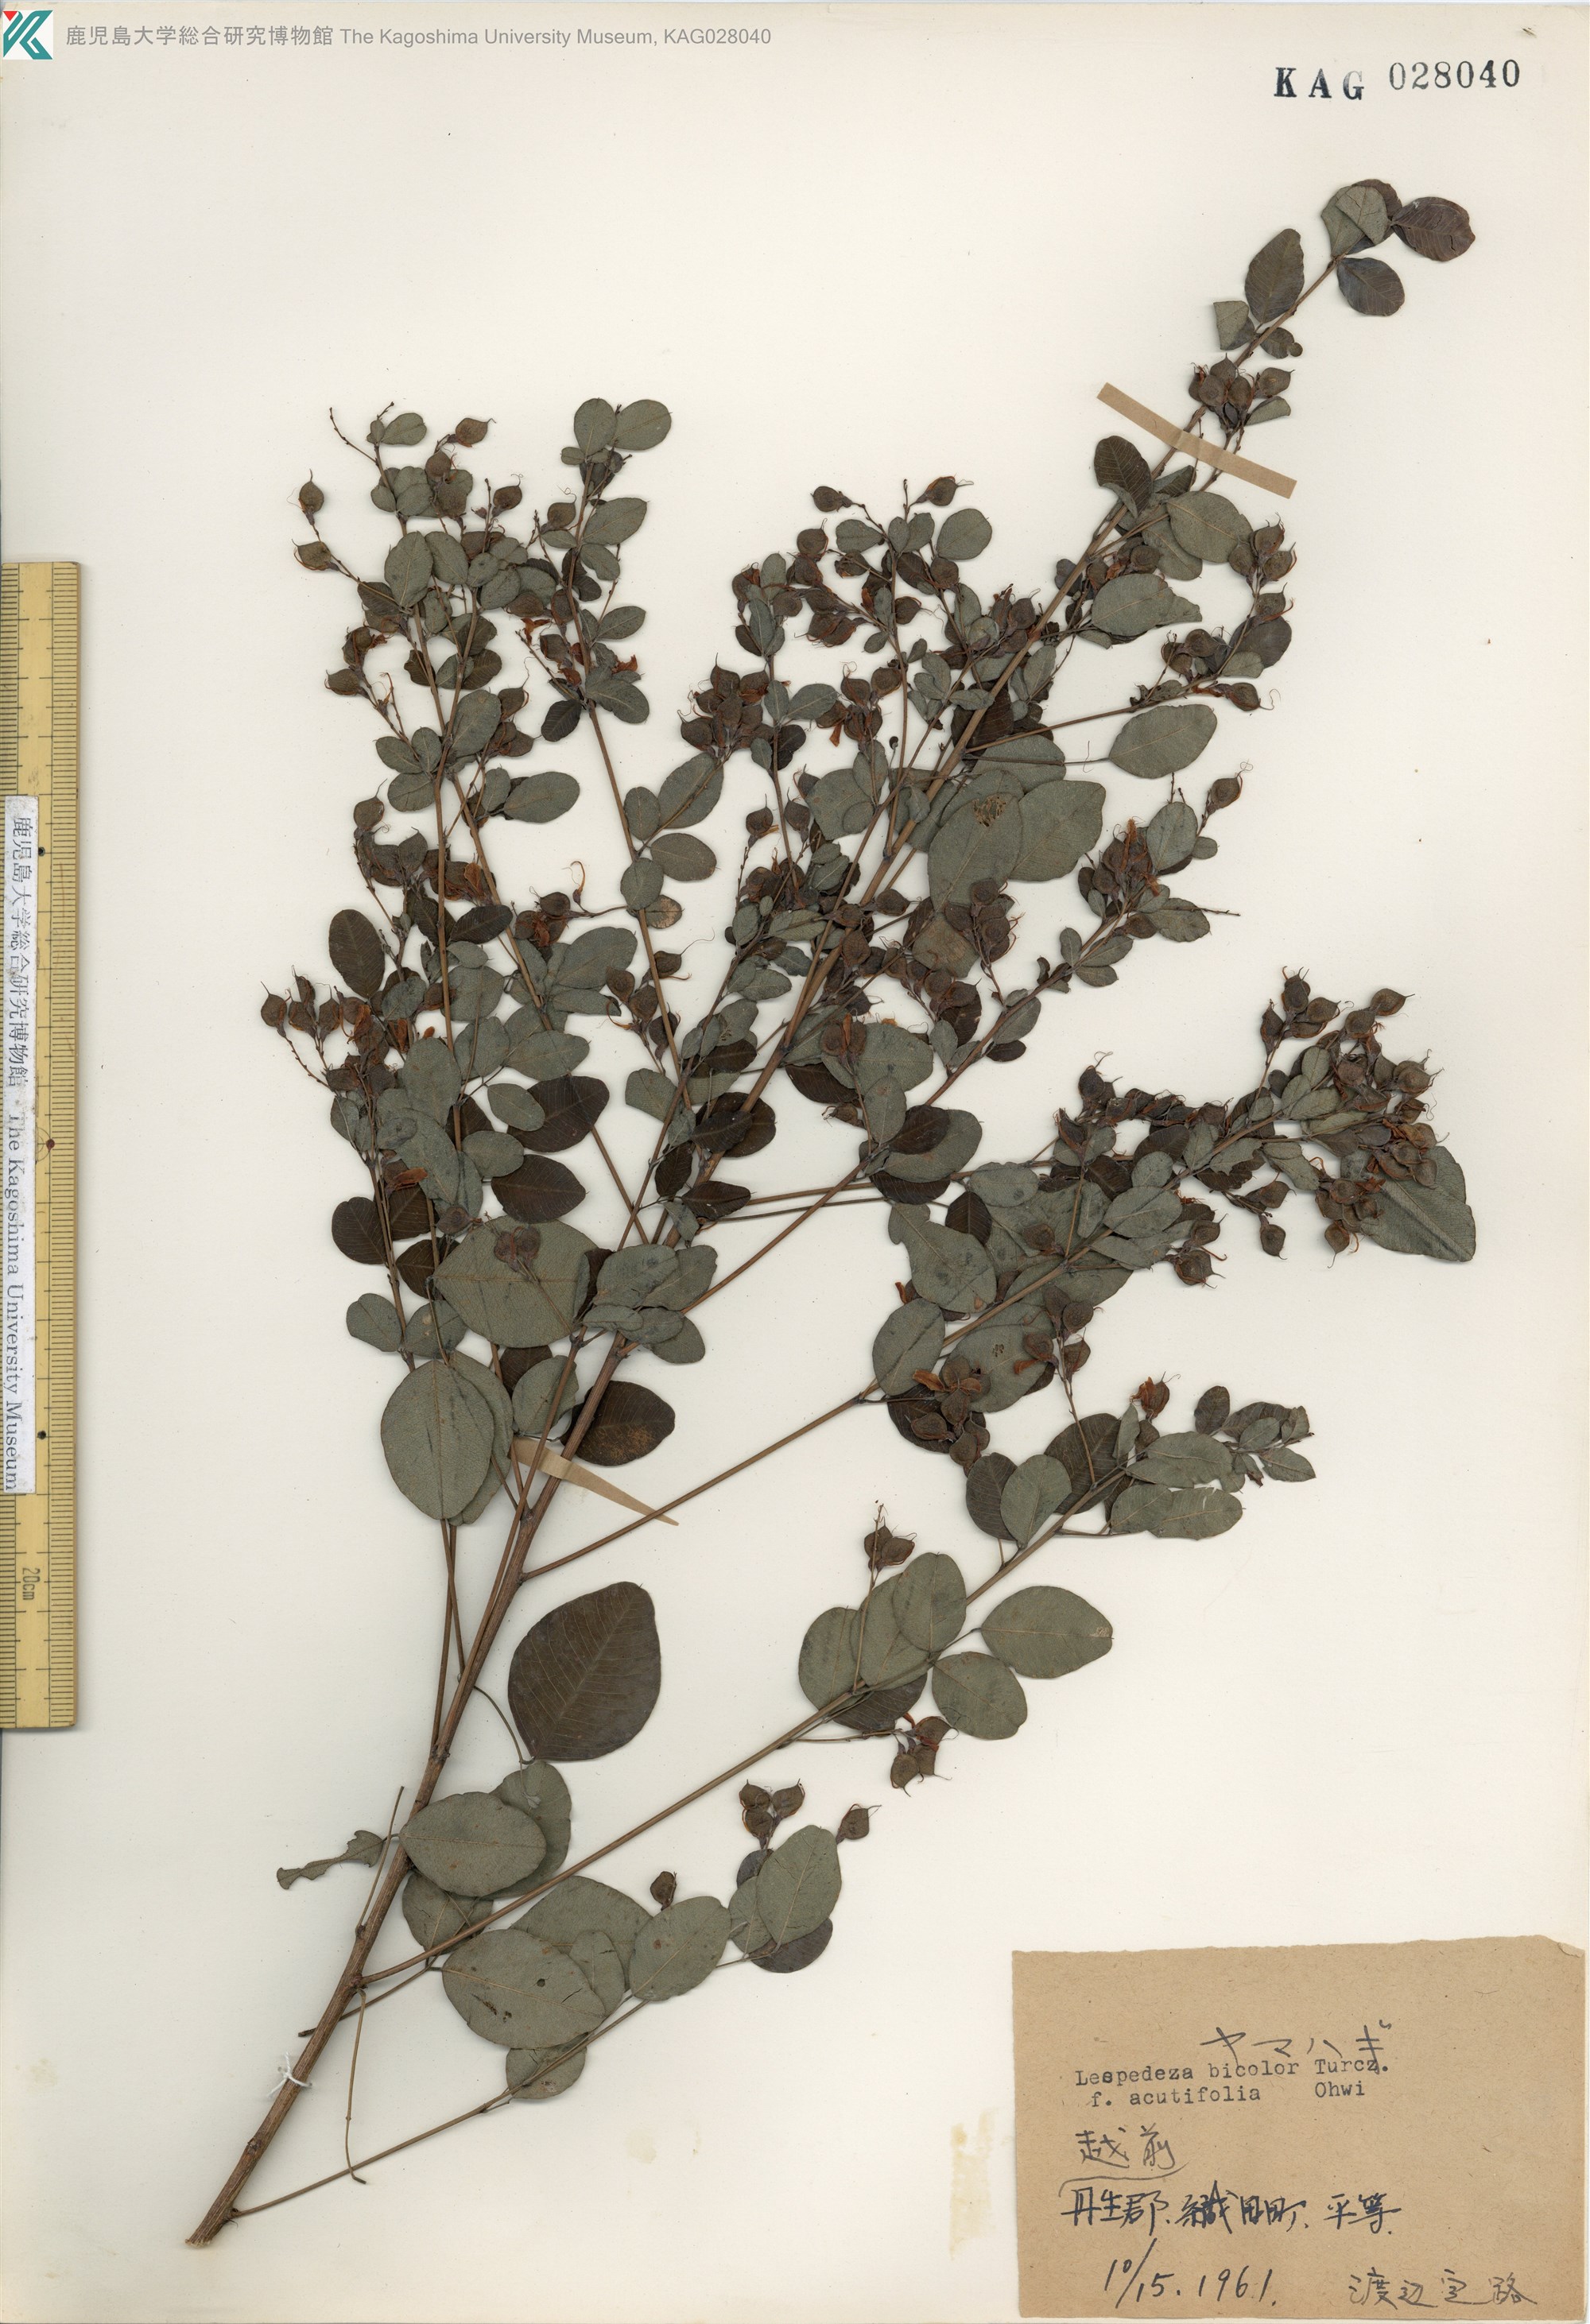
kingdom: Plantae
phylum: Tracheophyta
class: Magnoliopsida
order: Fabales
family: Fabaceae
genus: Lespedeza
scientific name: Lespedeza bicolor
